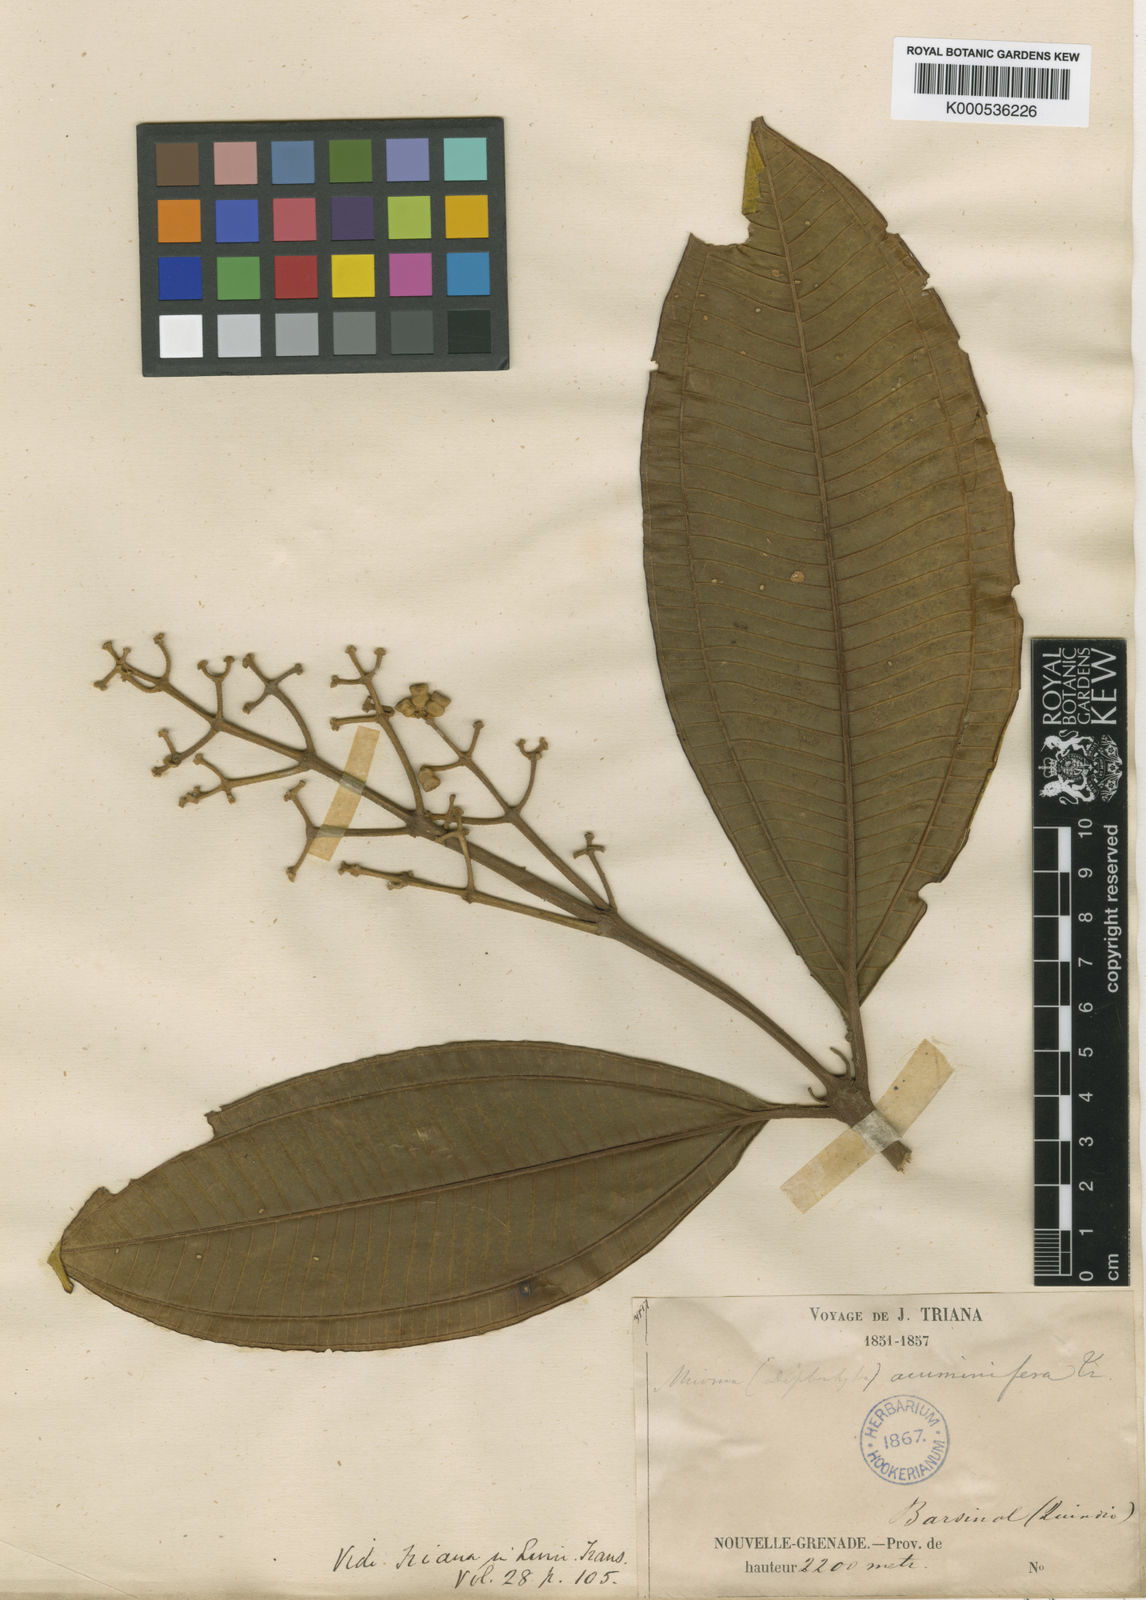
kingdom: Plantae
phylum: Tracheophyta
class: Magnoliopsida
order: Myrtales
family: Melastomataceae
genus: Miconia
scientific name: Miconia acuminifera
